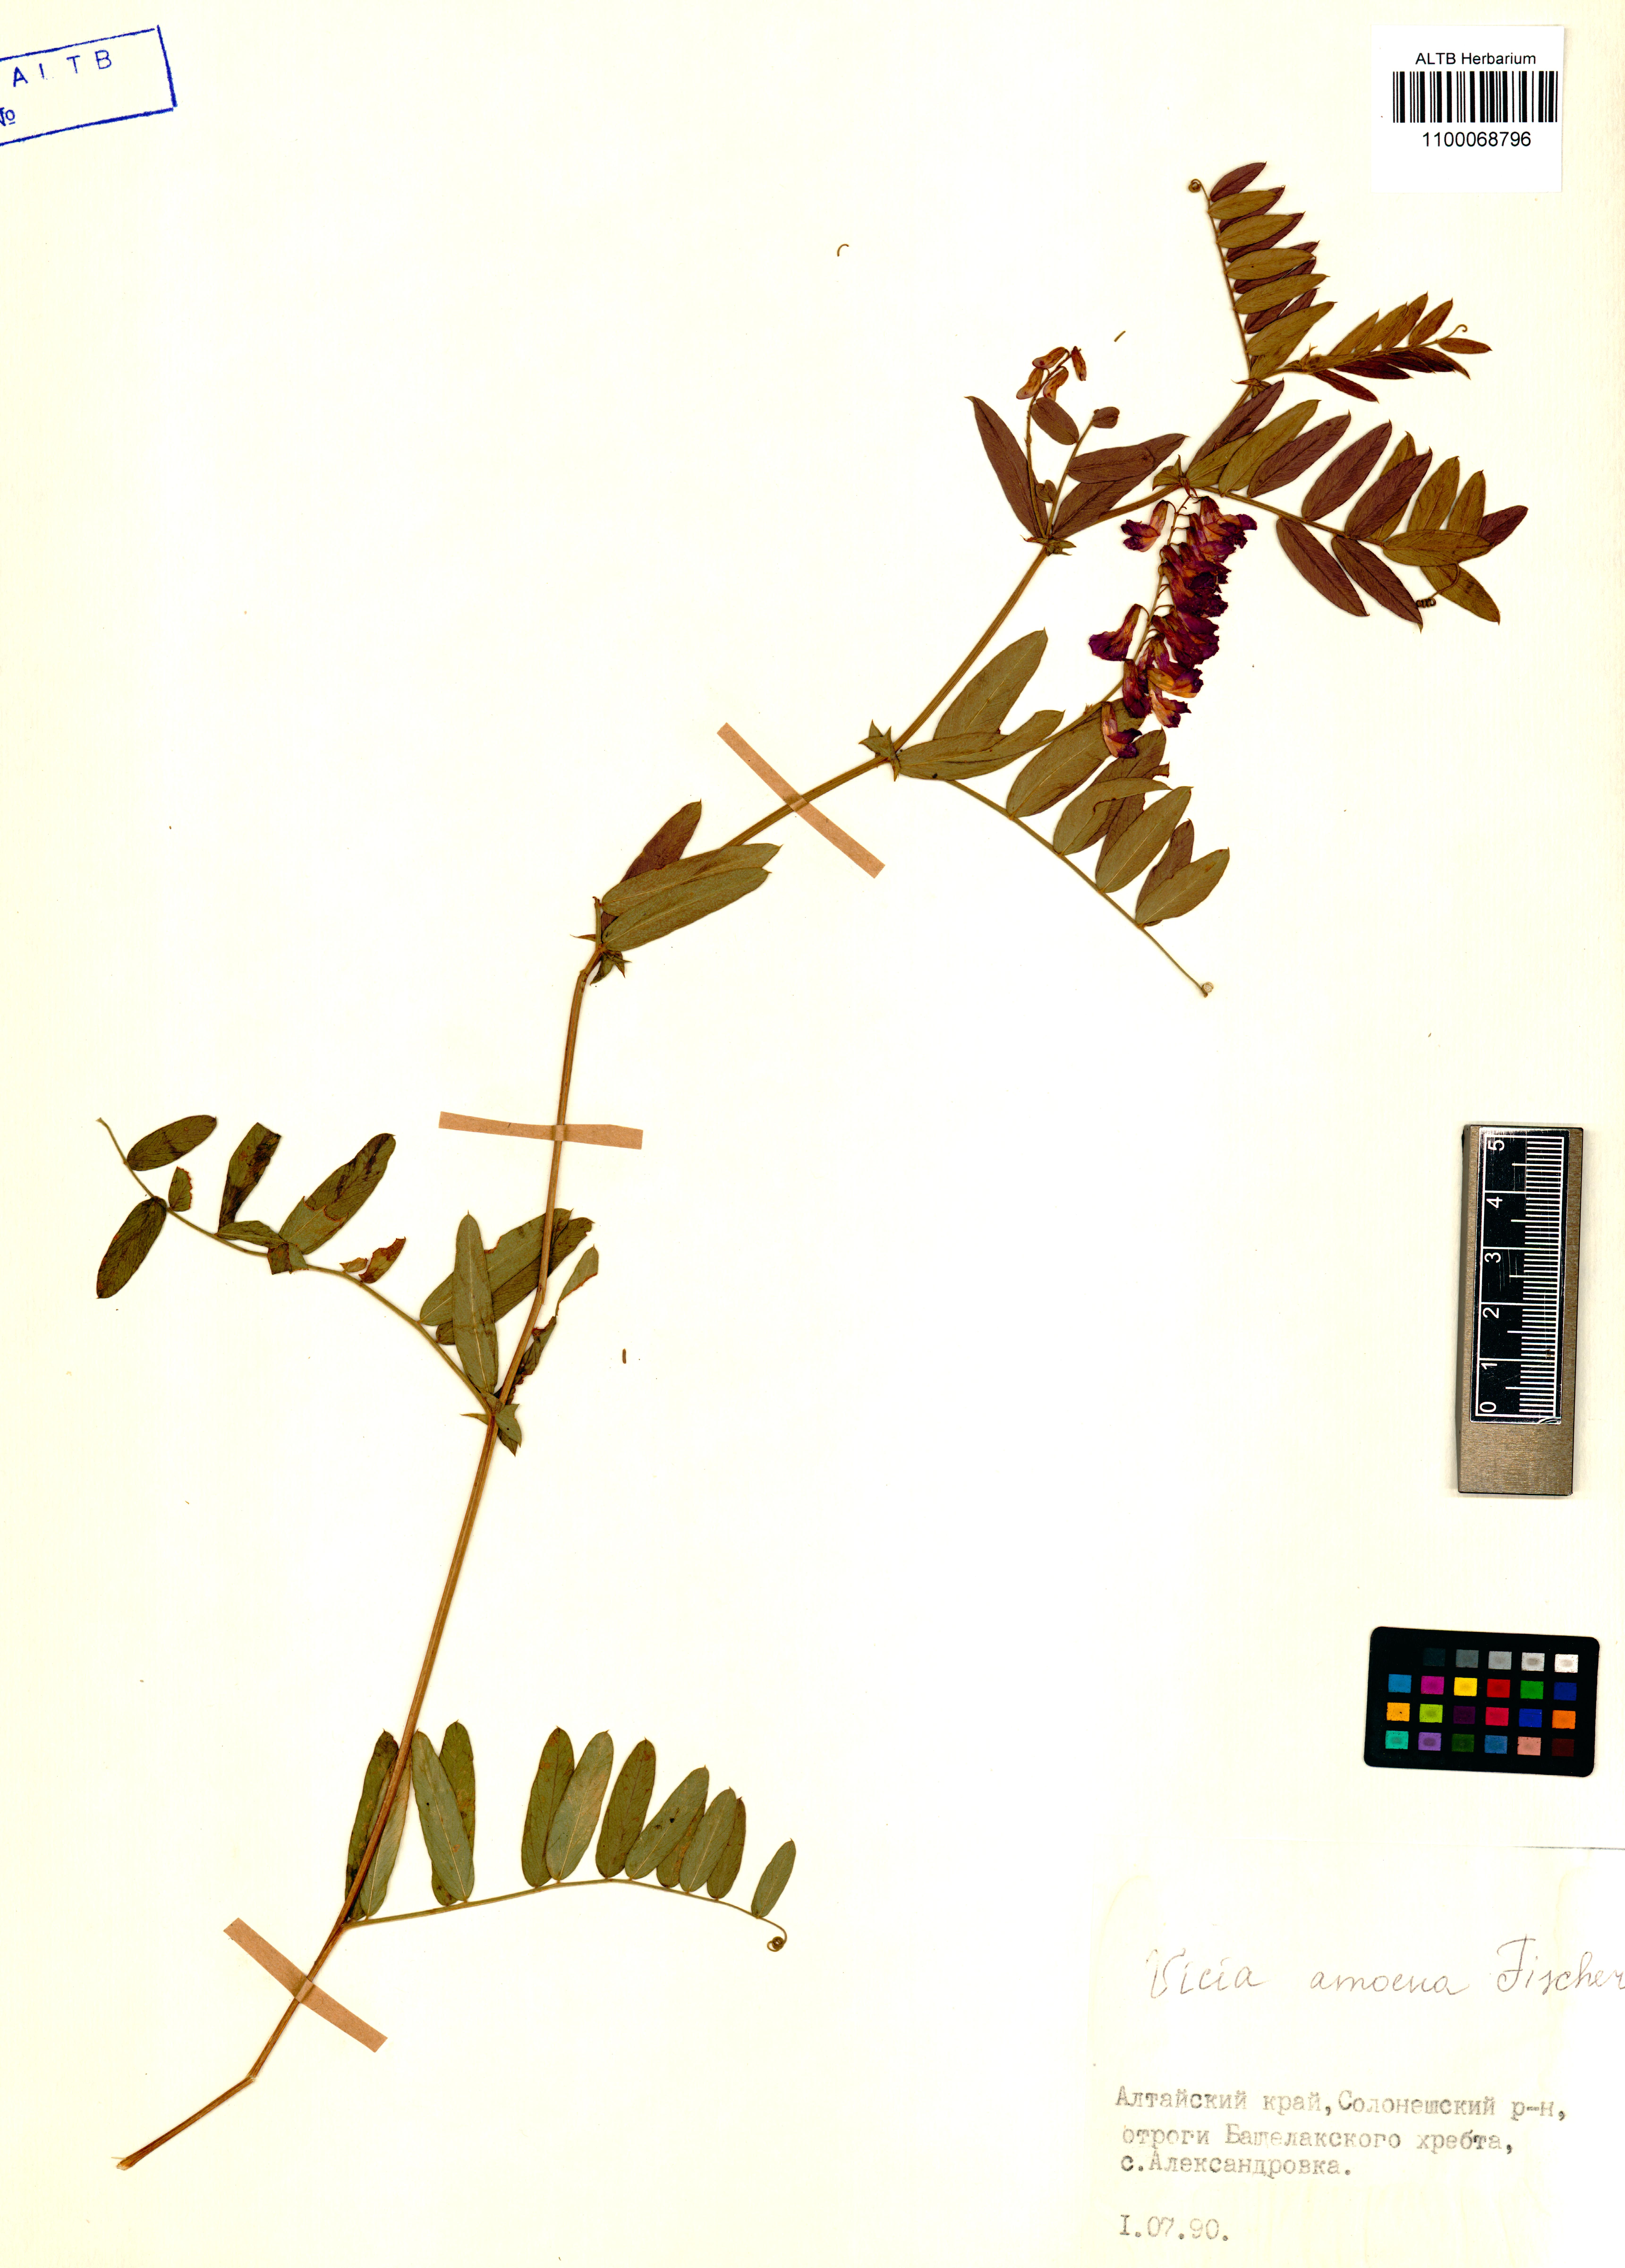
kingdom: Plantae
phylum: Tracheophyta
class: Magnoliopsida
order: Fabales
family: Fabaceae
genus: Vicia
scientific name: Vicia amoena
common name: Cheder ebs
